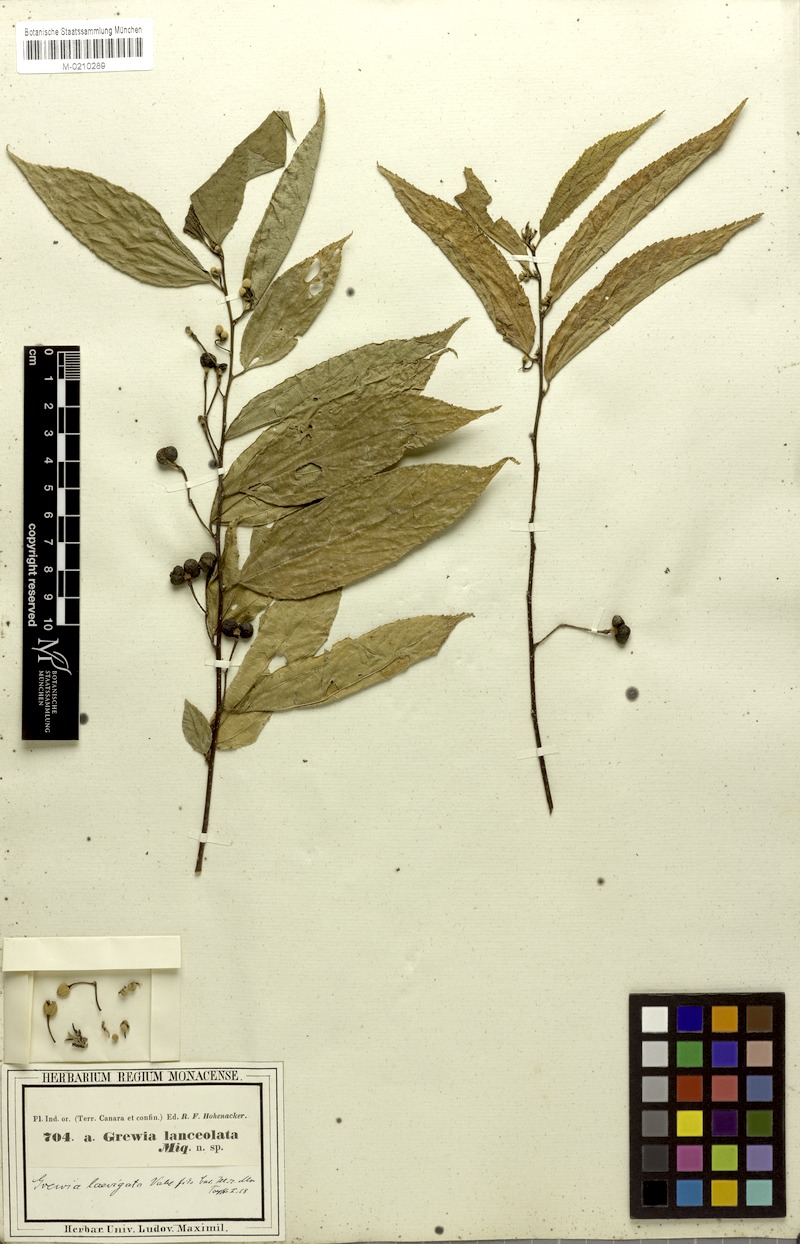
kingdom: Plantae
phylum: Tracheophyta
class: Magnoliopsida
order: Malvales
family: Malvaceae
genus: Grewia
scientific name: Grewia serrulata
